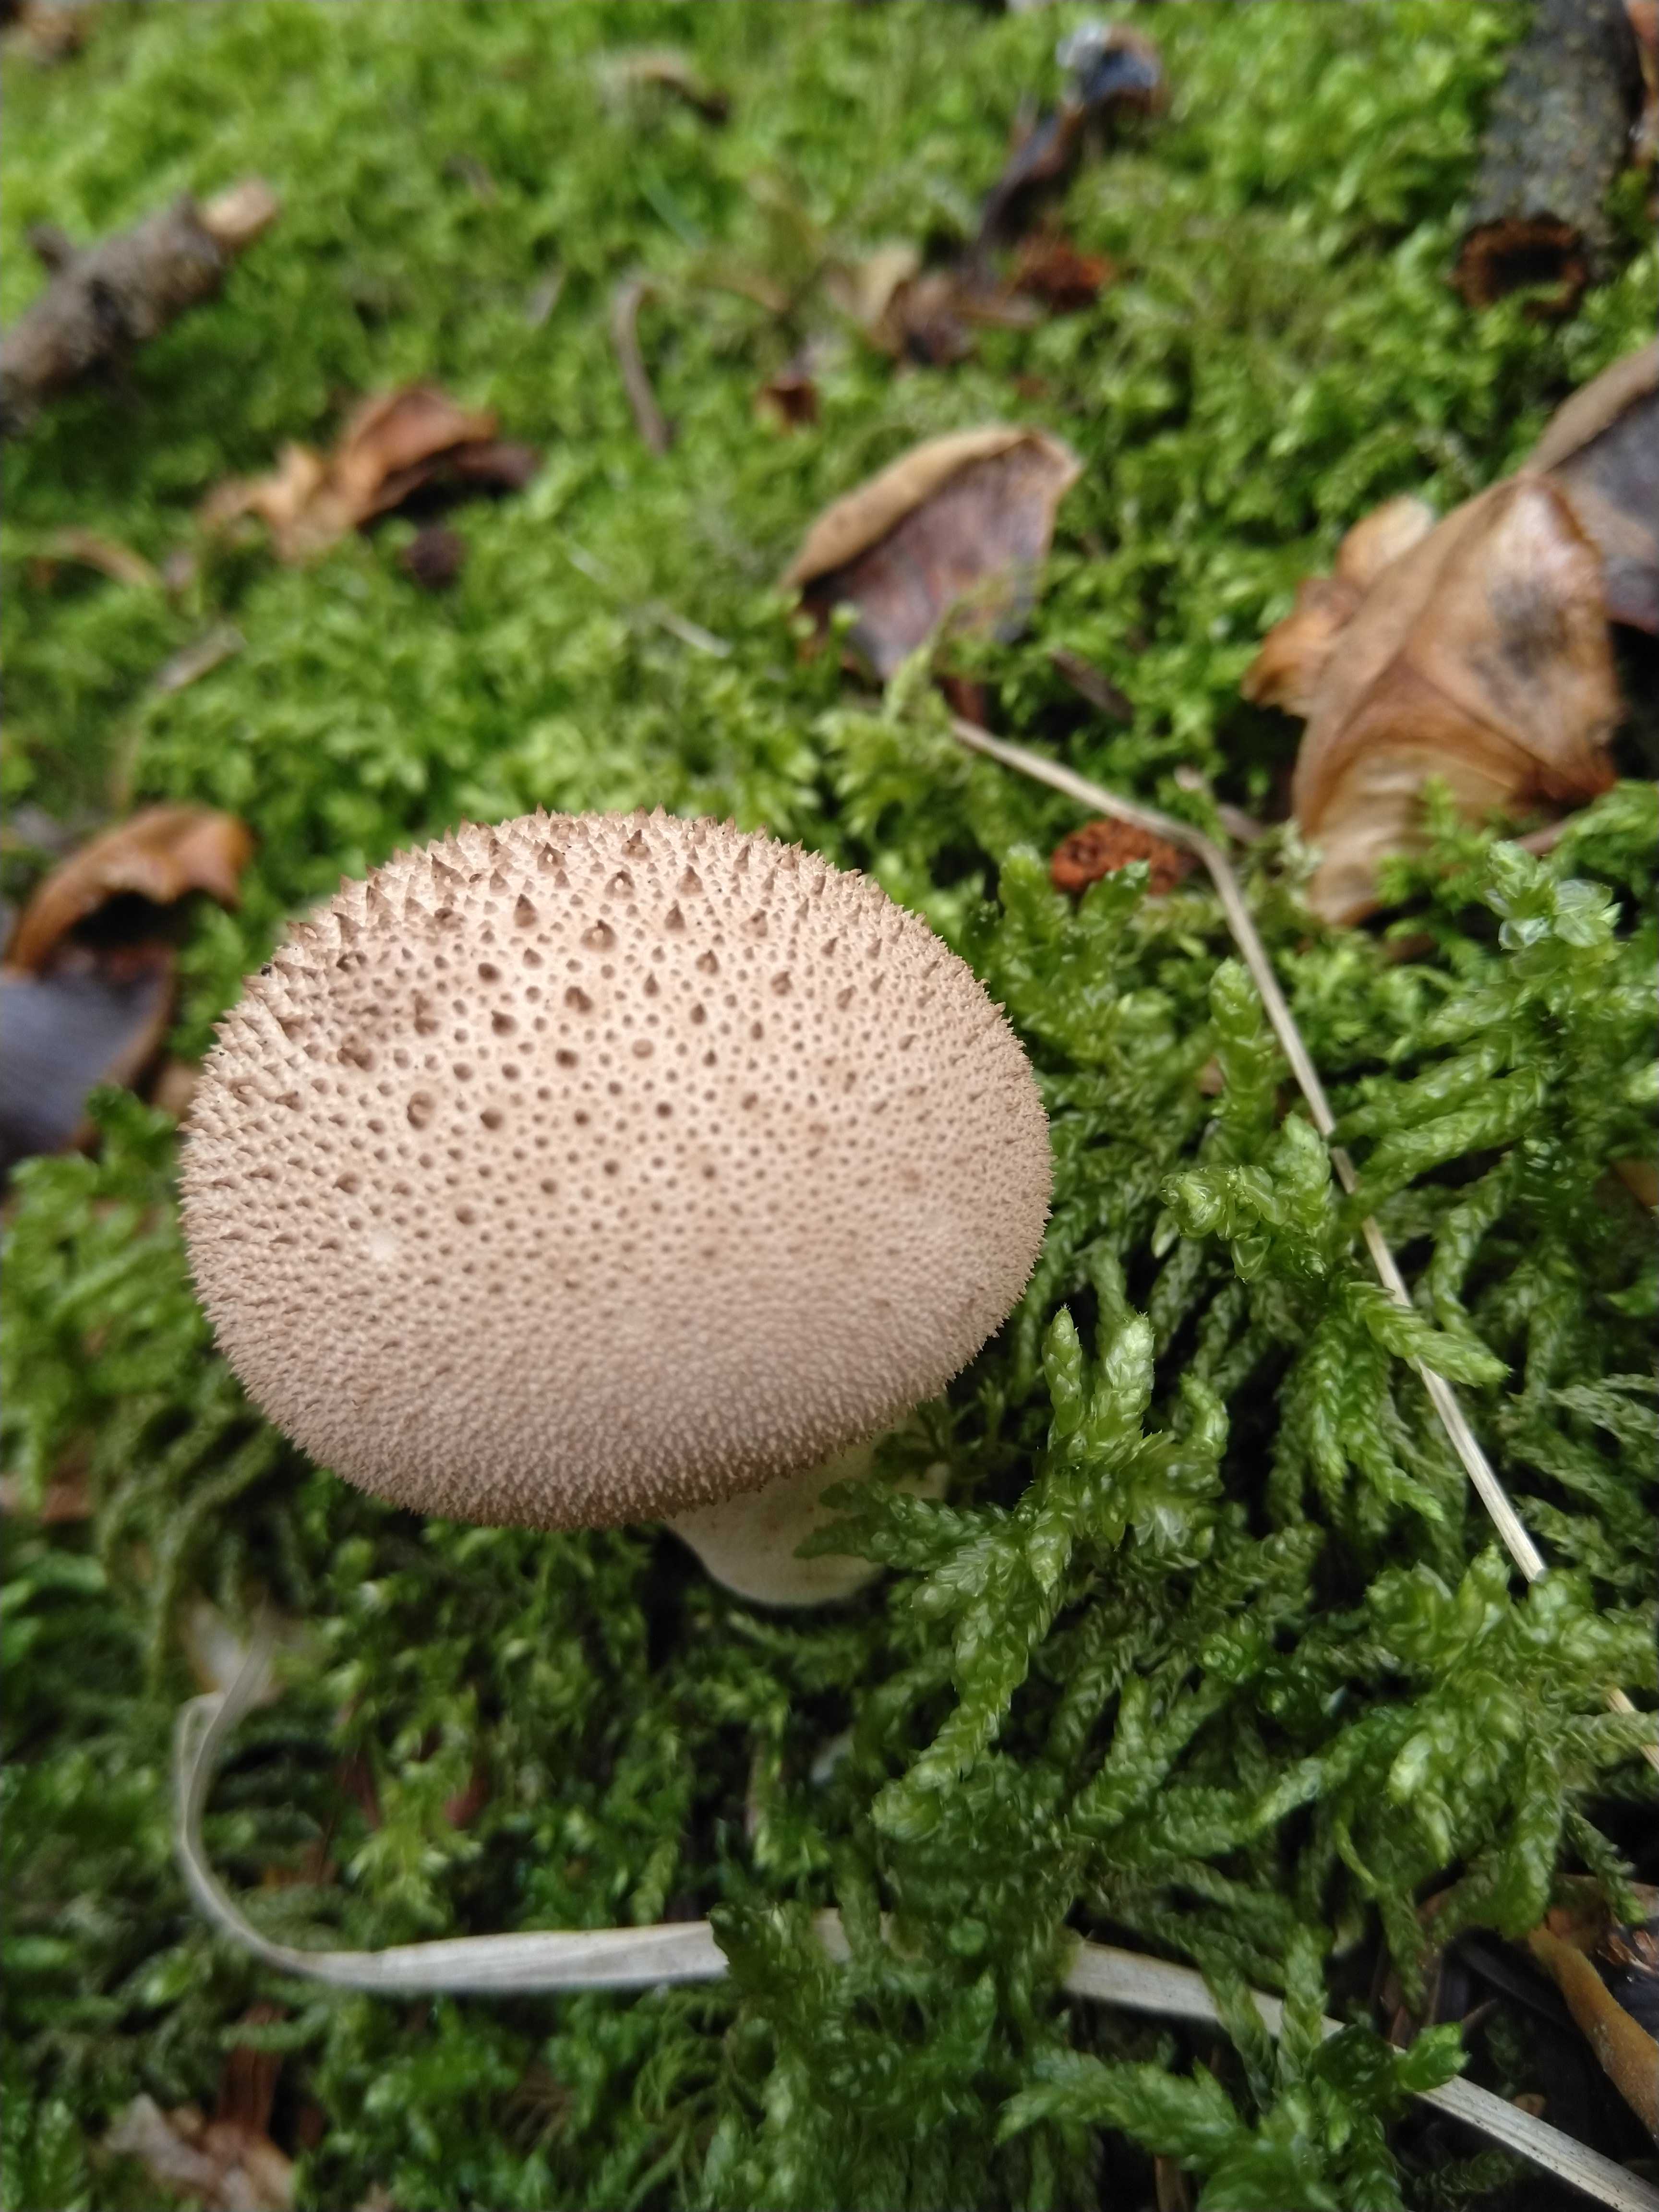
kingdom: Fungi
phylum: Basidiomycota
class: Agaricomycetes
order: Agaricales
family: Lycoperdaceae
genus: Lycoperdon
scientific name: Lycoperdon perlatum
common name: krystal-støvbold
